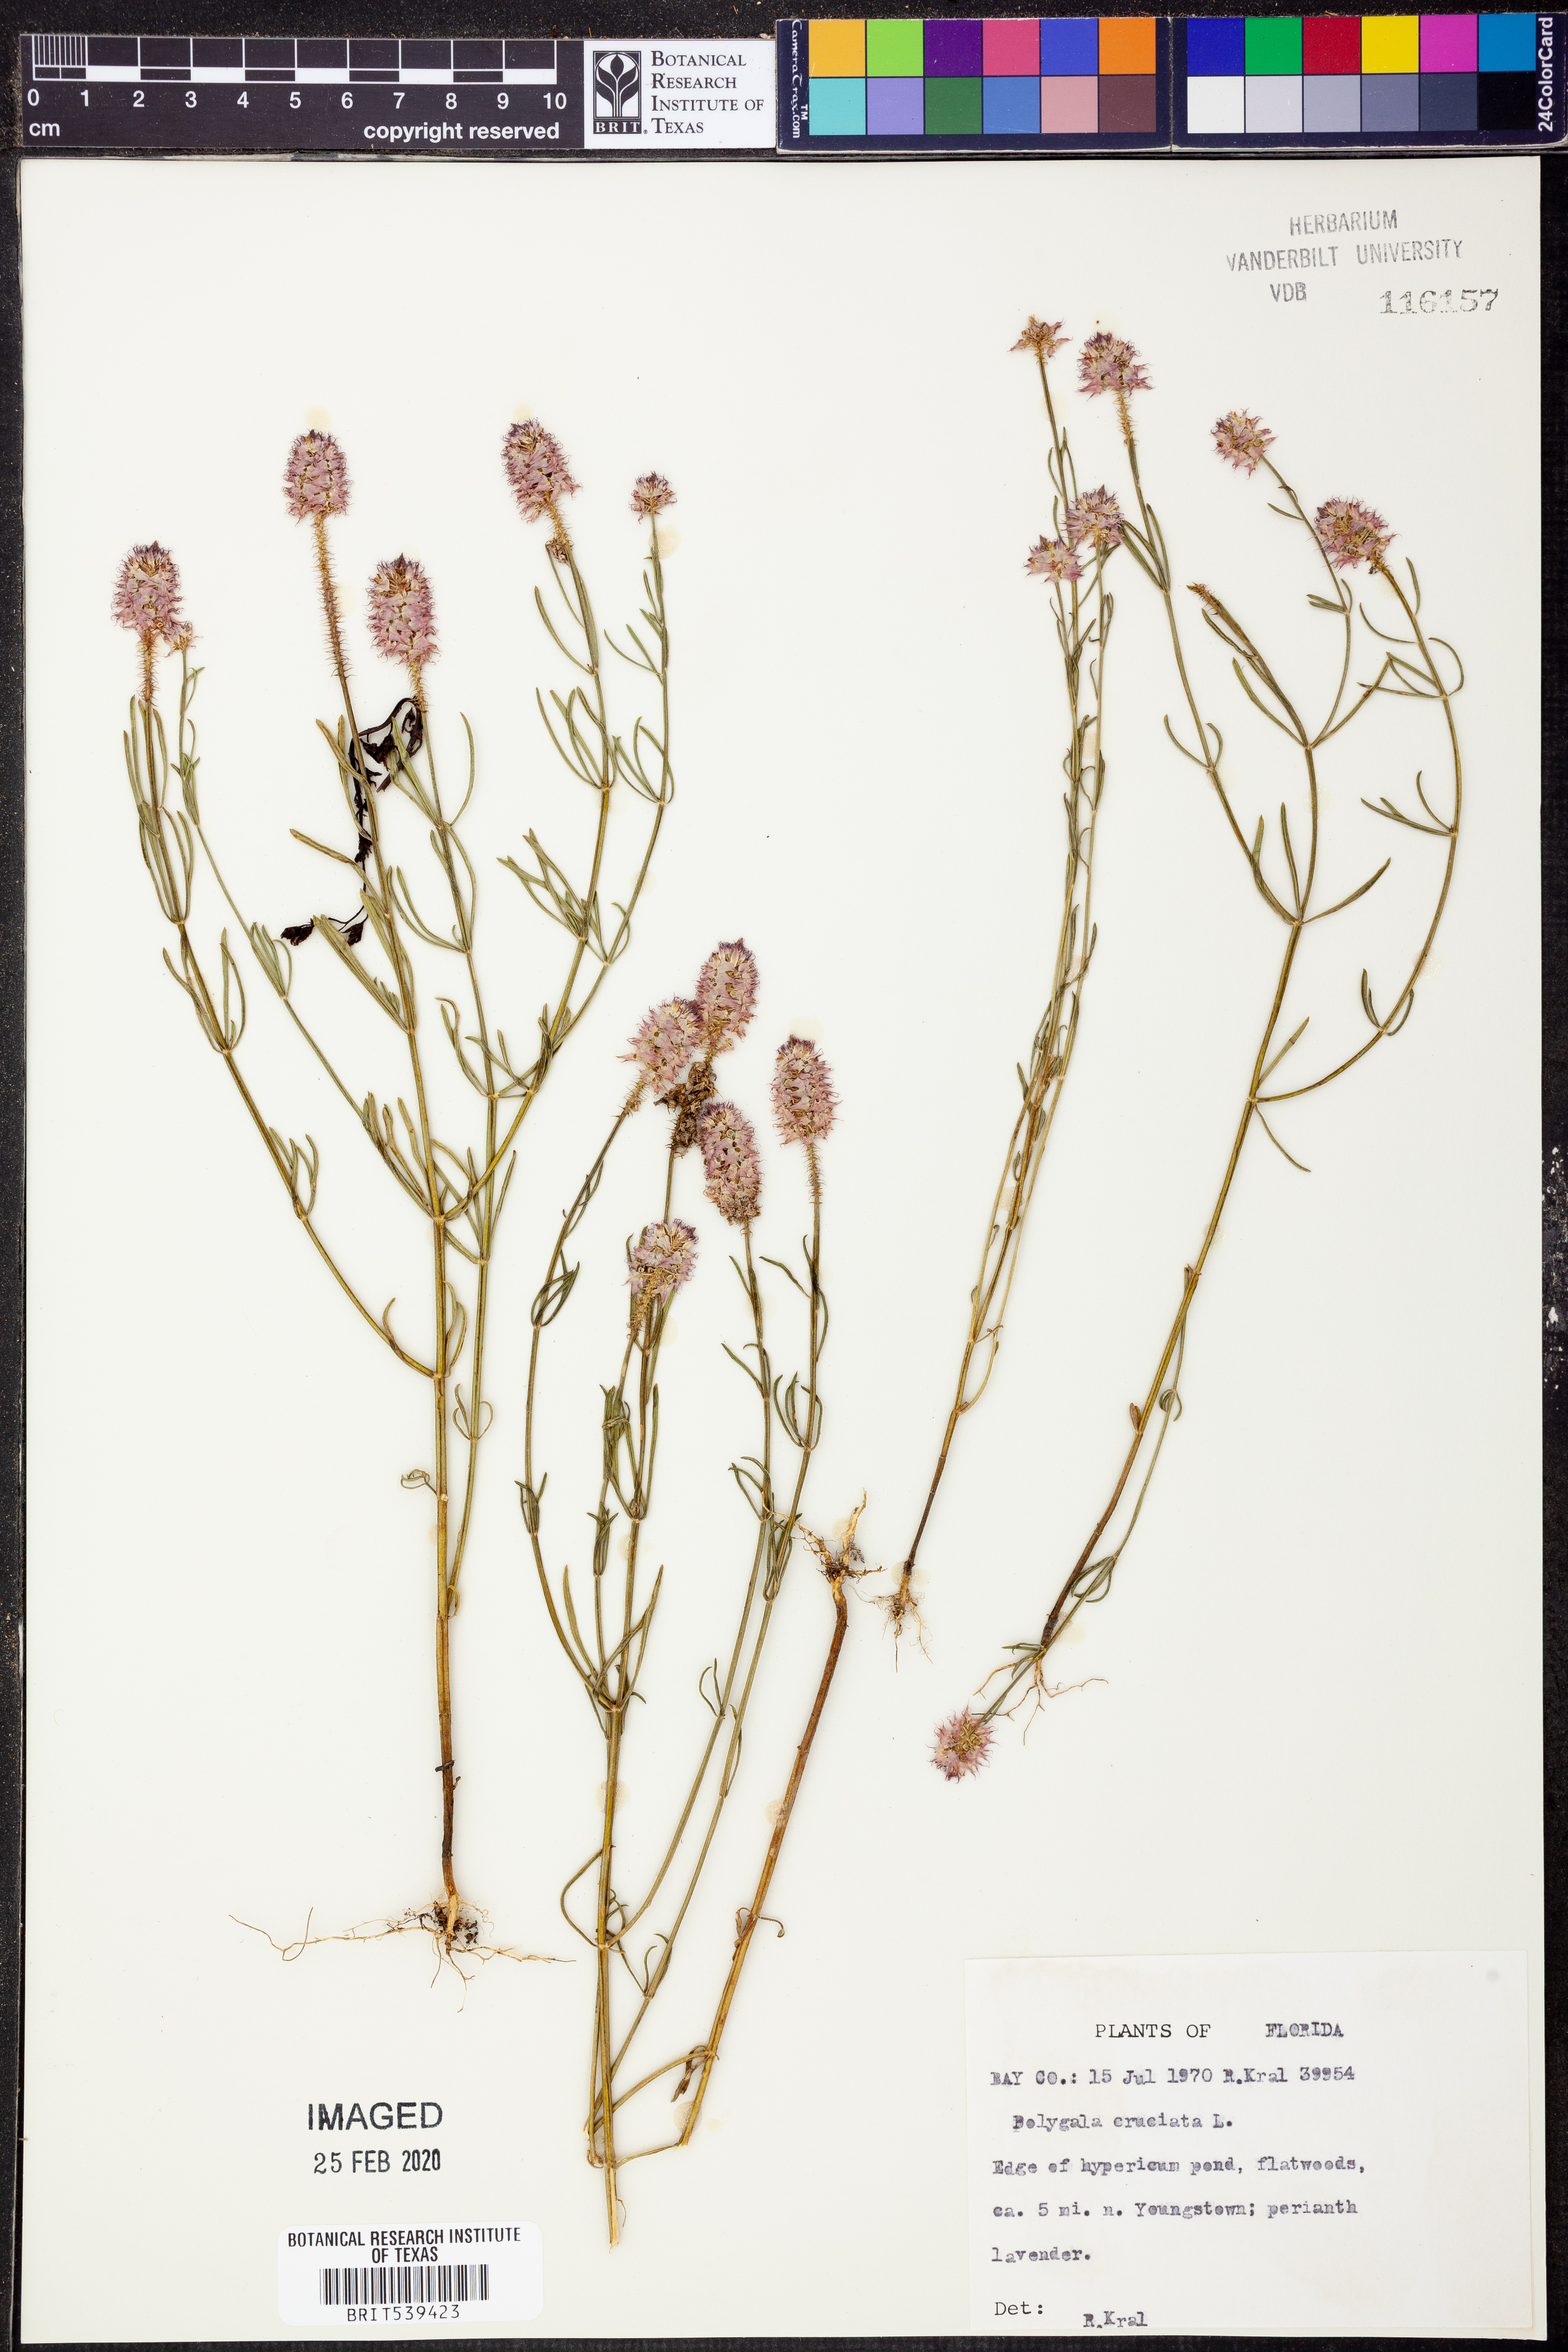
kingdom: Plantae
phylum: Tracheophyta
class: Magnoliopsida
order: Fabales
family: Polygalaceae
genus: Polygala
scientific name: Polygala cruciata
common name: Drumheads
